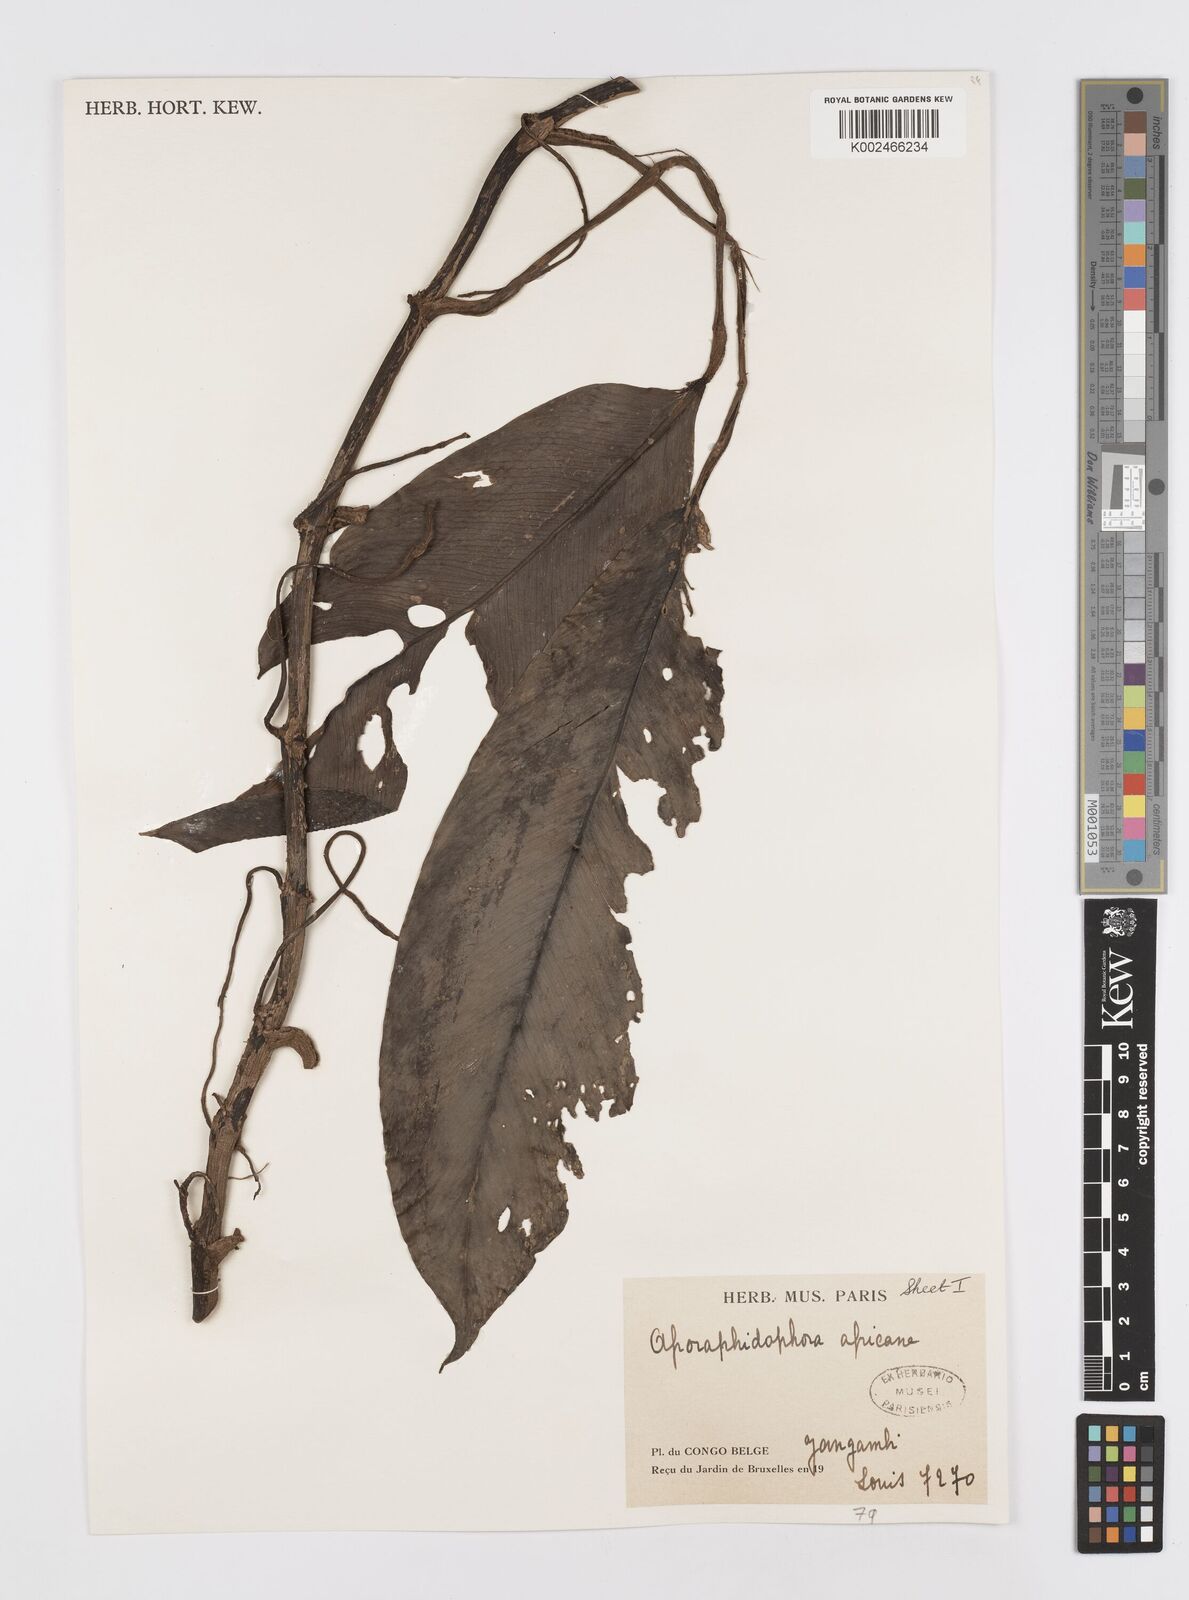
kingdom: Plantae
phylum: Tracheophyta
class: Liliopsida
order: Alismatales
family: Araceae
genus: Rhaphidophora
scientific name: Rhaphidophora africana
